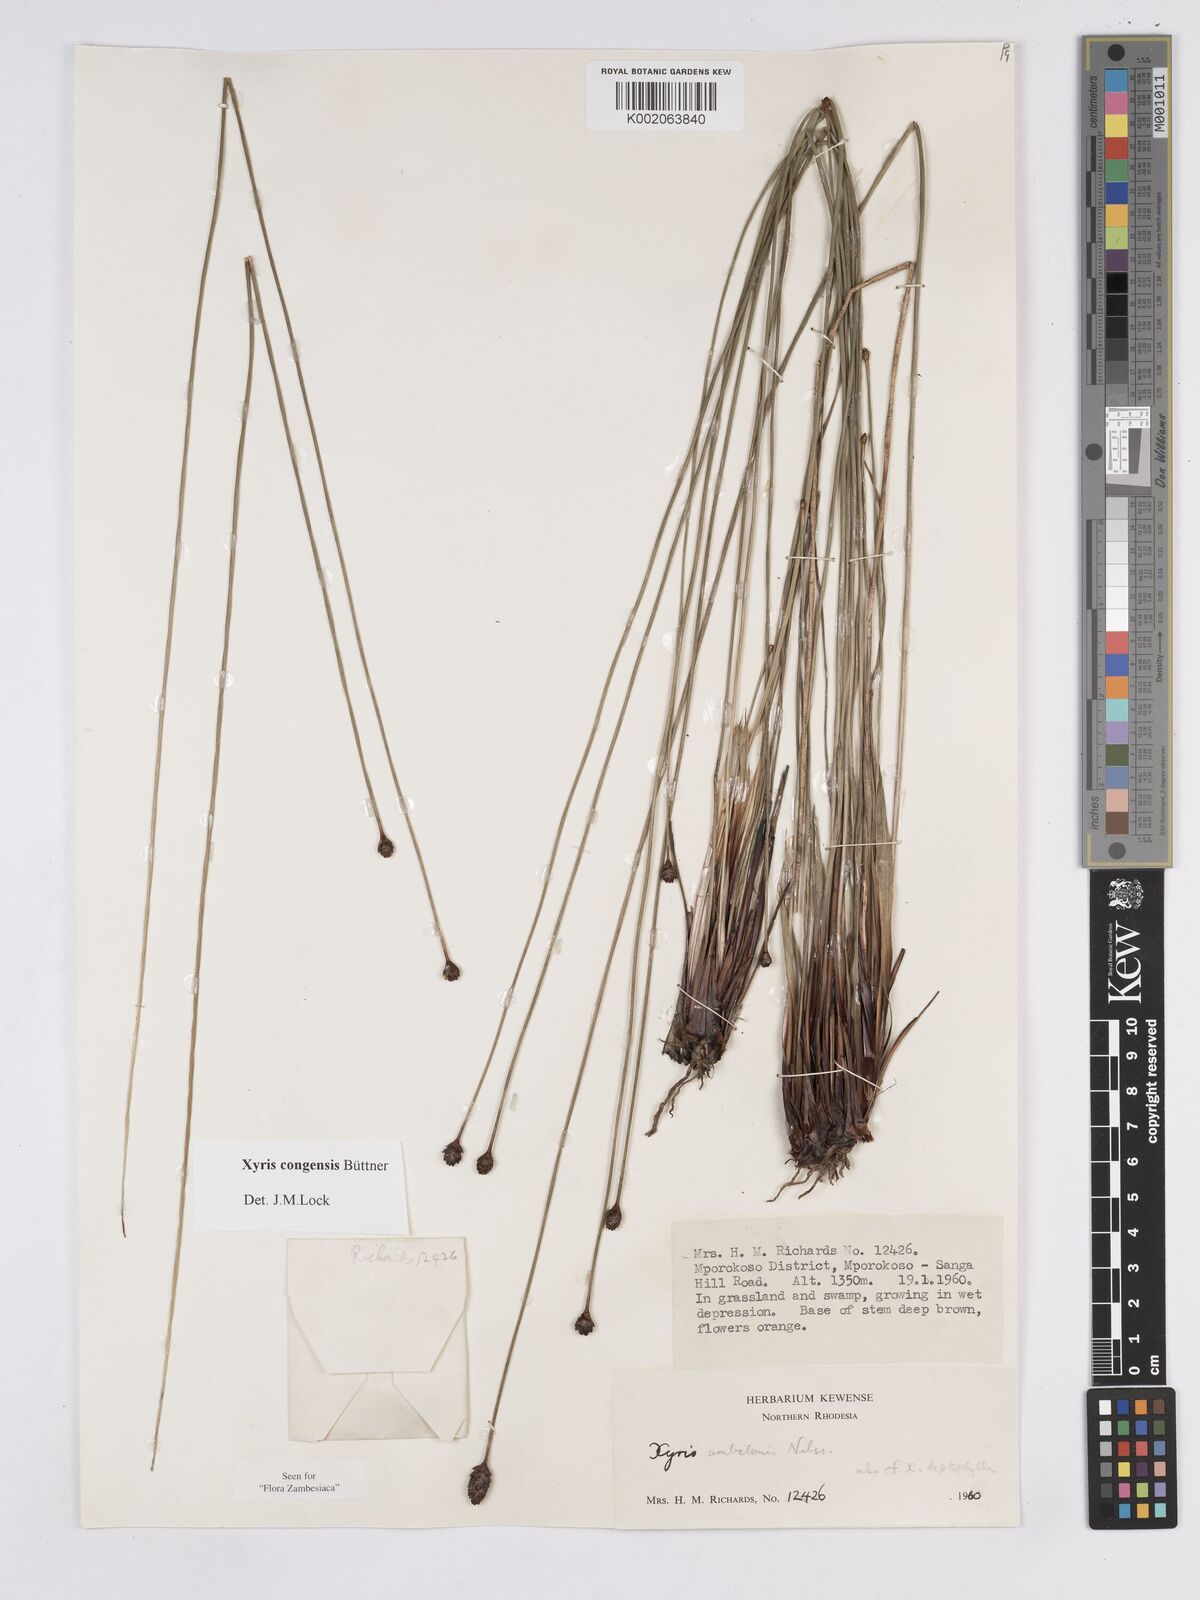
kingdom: Plantae
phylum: Tracheophyta
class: Liliopsida
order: Poales
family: Xyridaceae
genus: Xyris
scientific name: Xyris congensis
